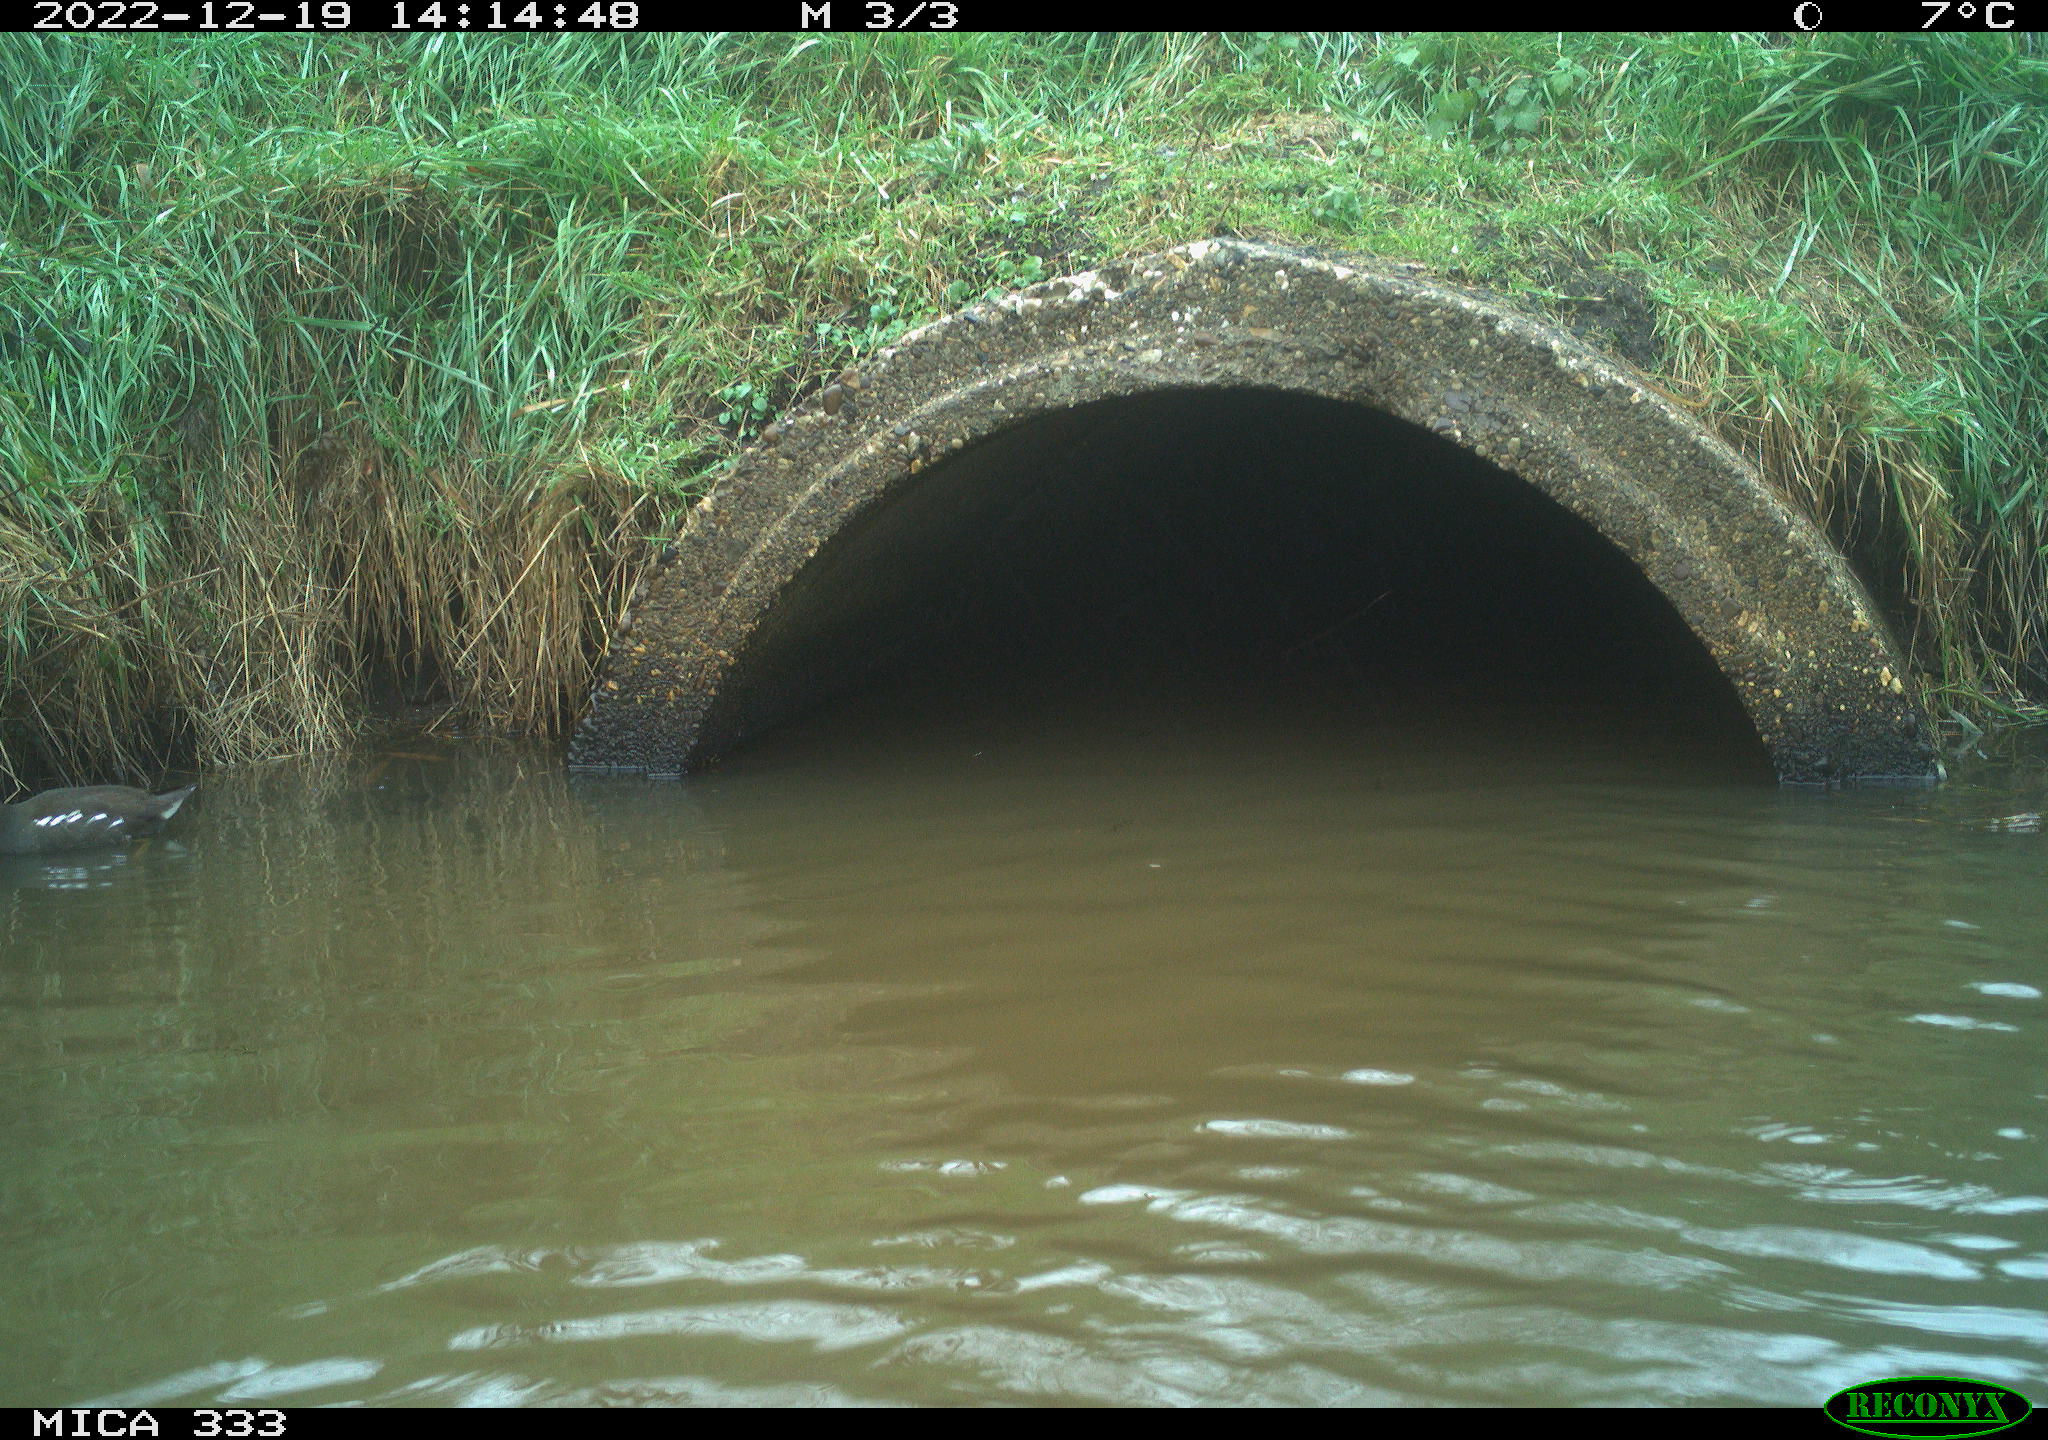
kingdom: Animalia
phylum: Chordata
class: Aves
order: Gruiformes
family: Rallidae
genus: Gallinula
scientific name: Gallinula chloropus
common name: Common moorhen
